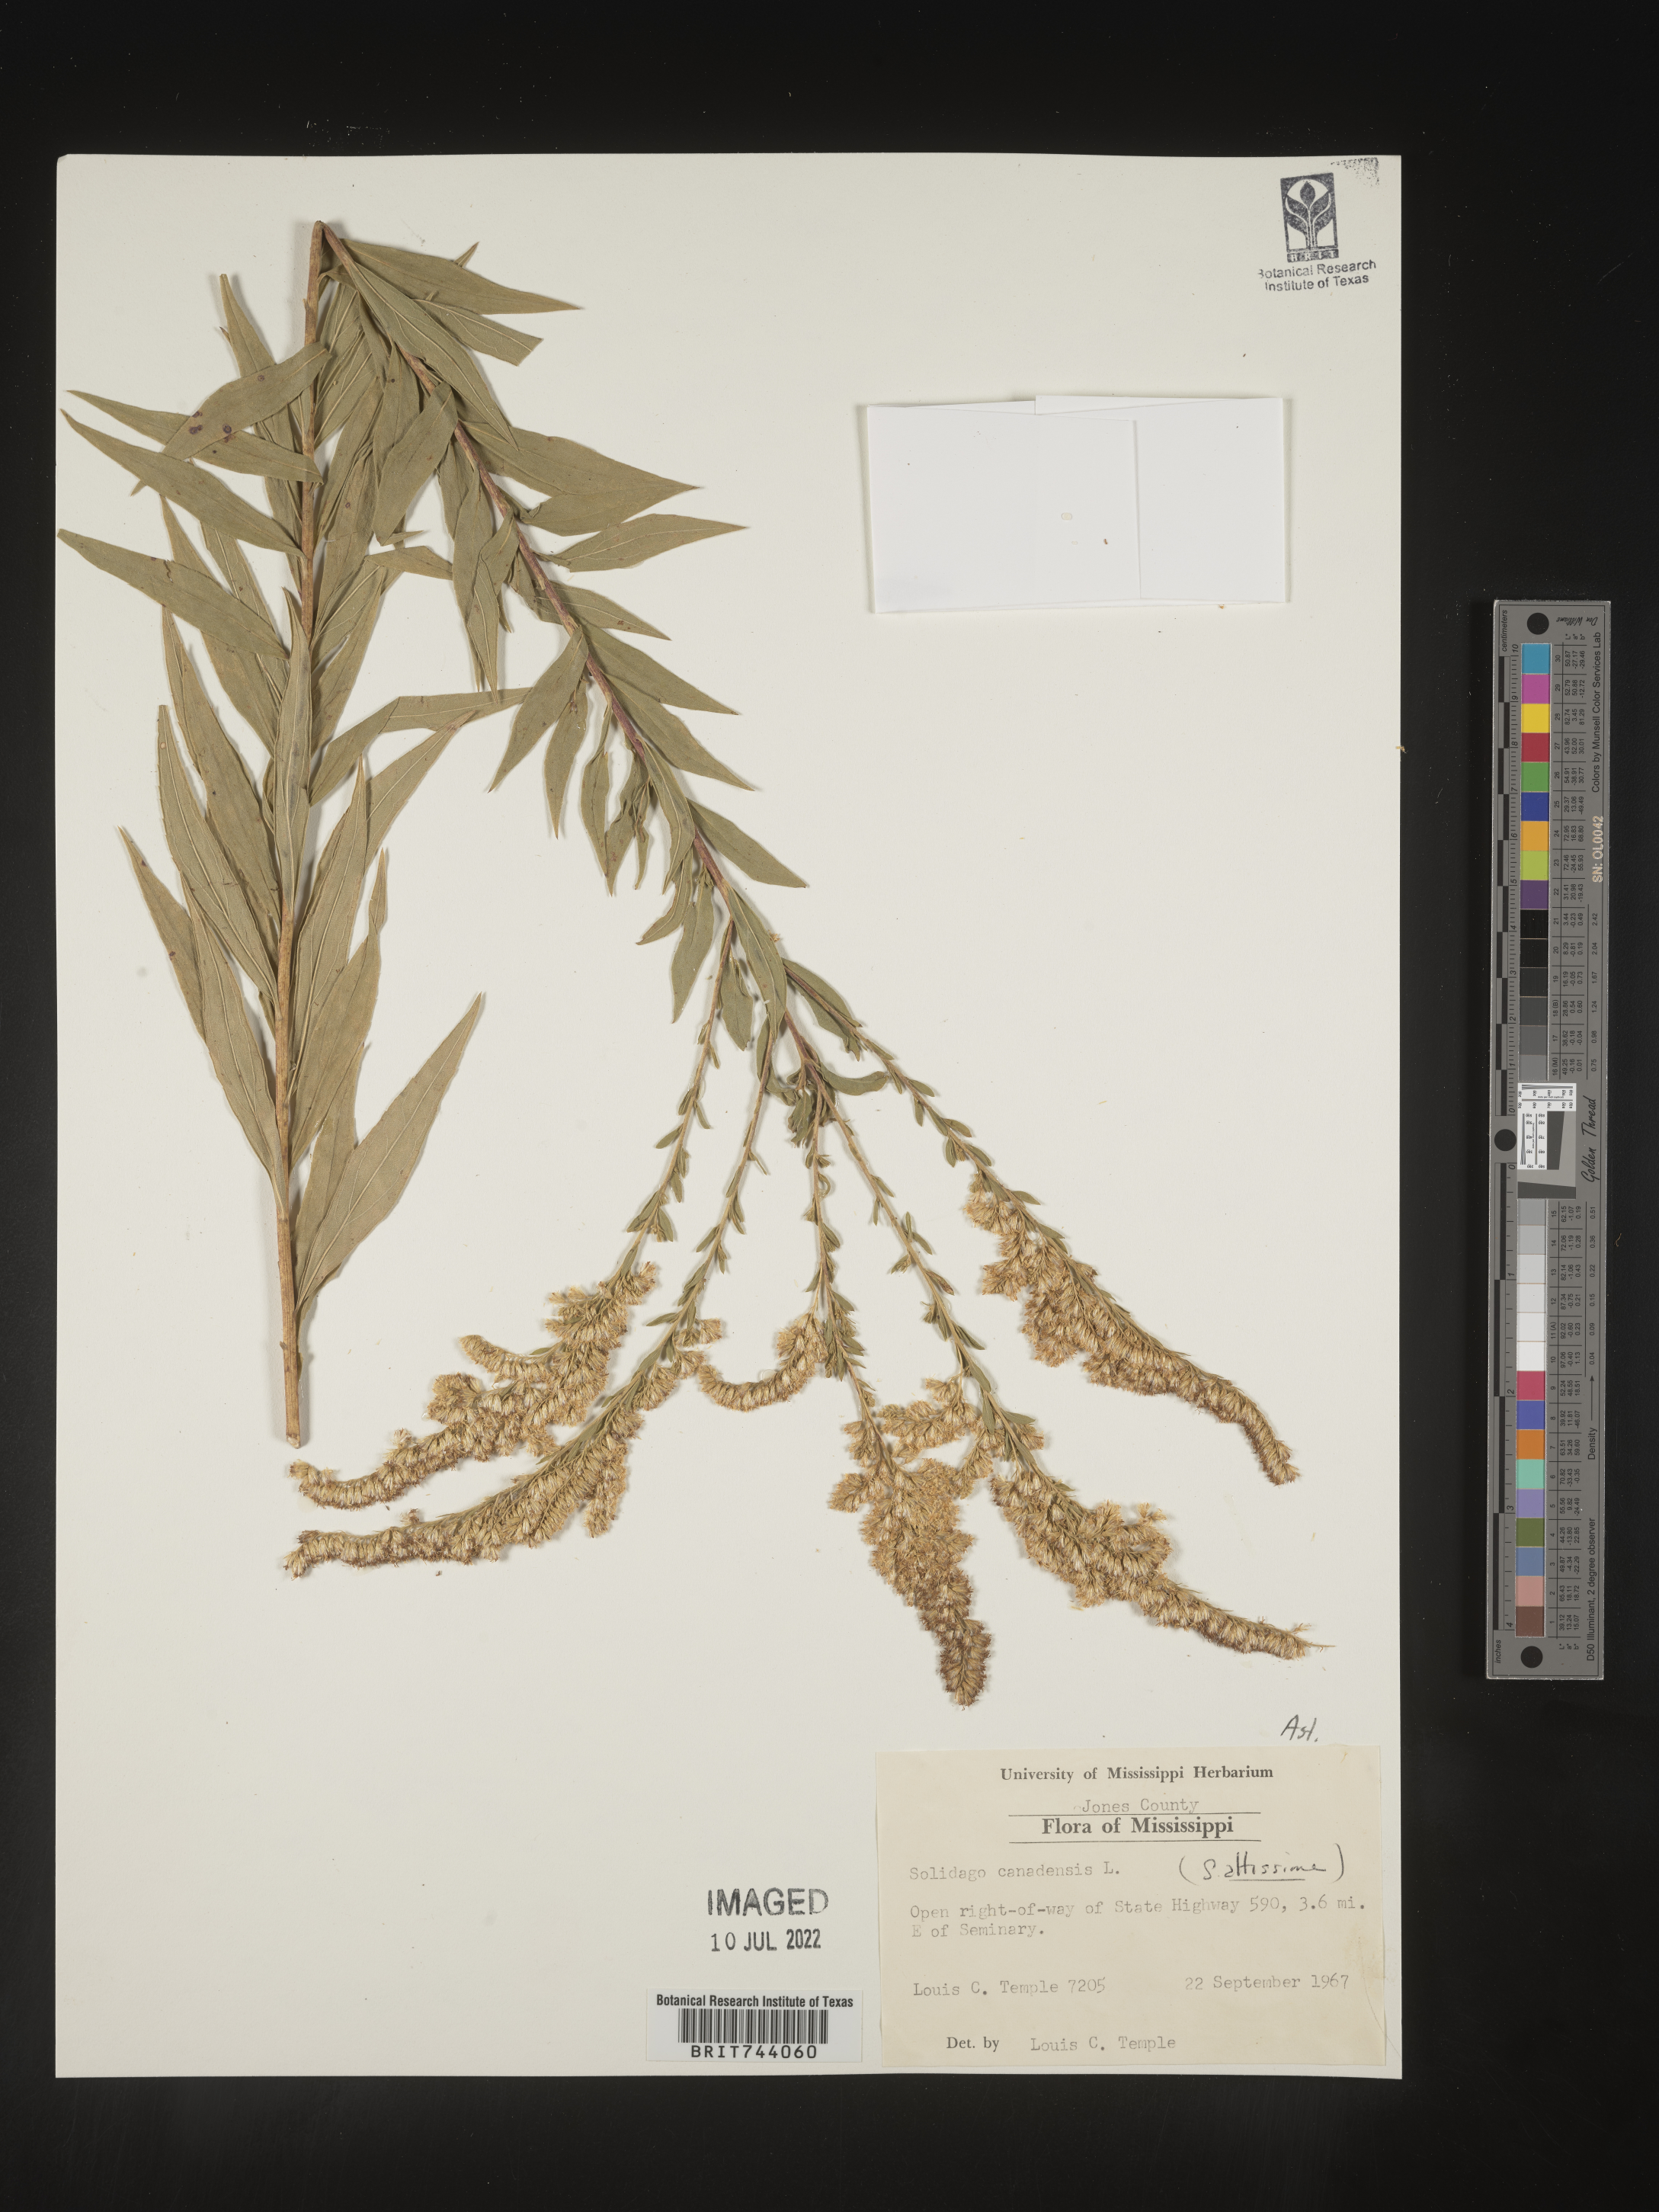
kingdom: Plantae
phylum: Tracheophyta
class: Magnoliopsida
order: Asterales
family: Asteraceae
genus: Solidago
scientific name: Solidago altissima
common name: Late goldenrod
